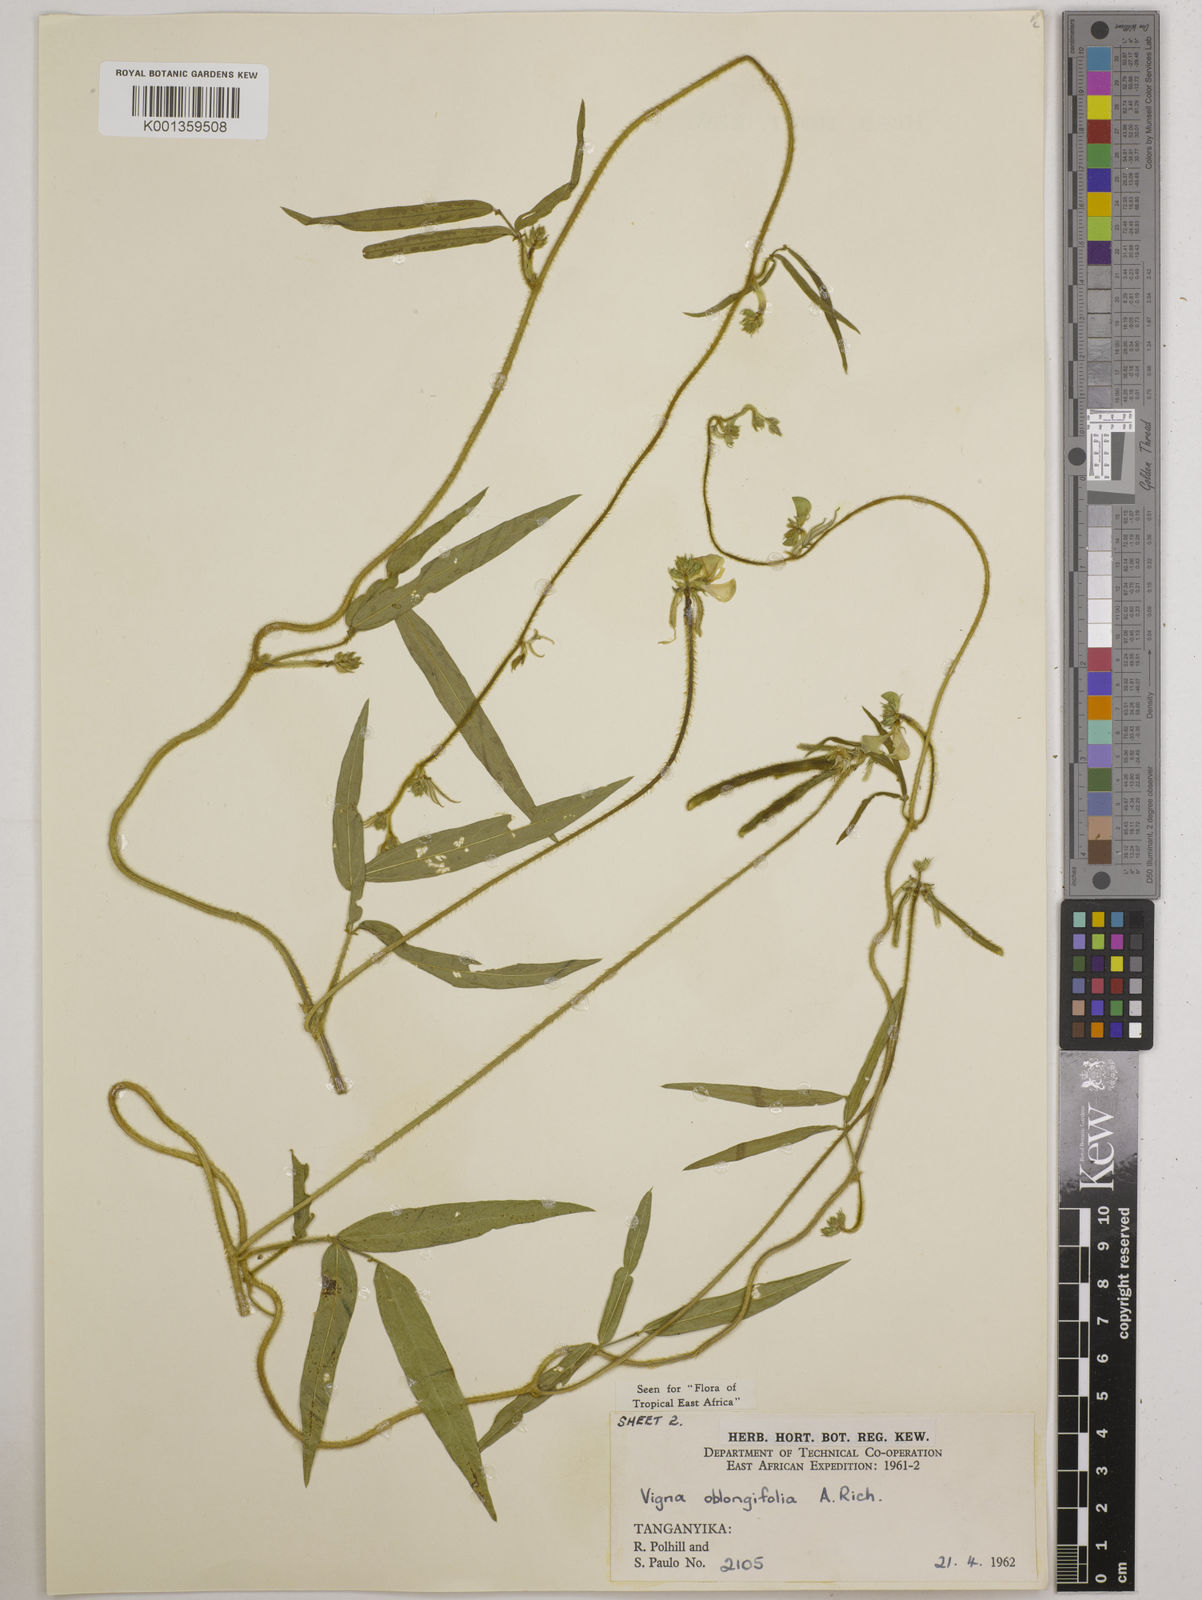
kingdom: Plantae
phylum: Tracheophyta
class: Magnoliopsida
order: Fabales
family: Fabaceae
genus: Vigna
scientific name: Vigna oblongifolia
